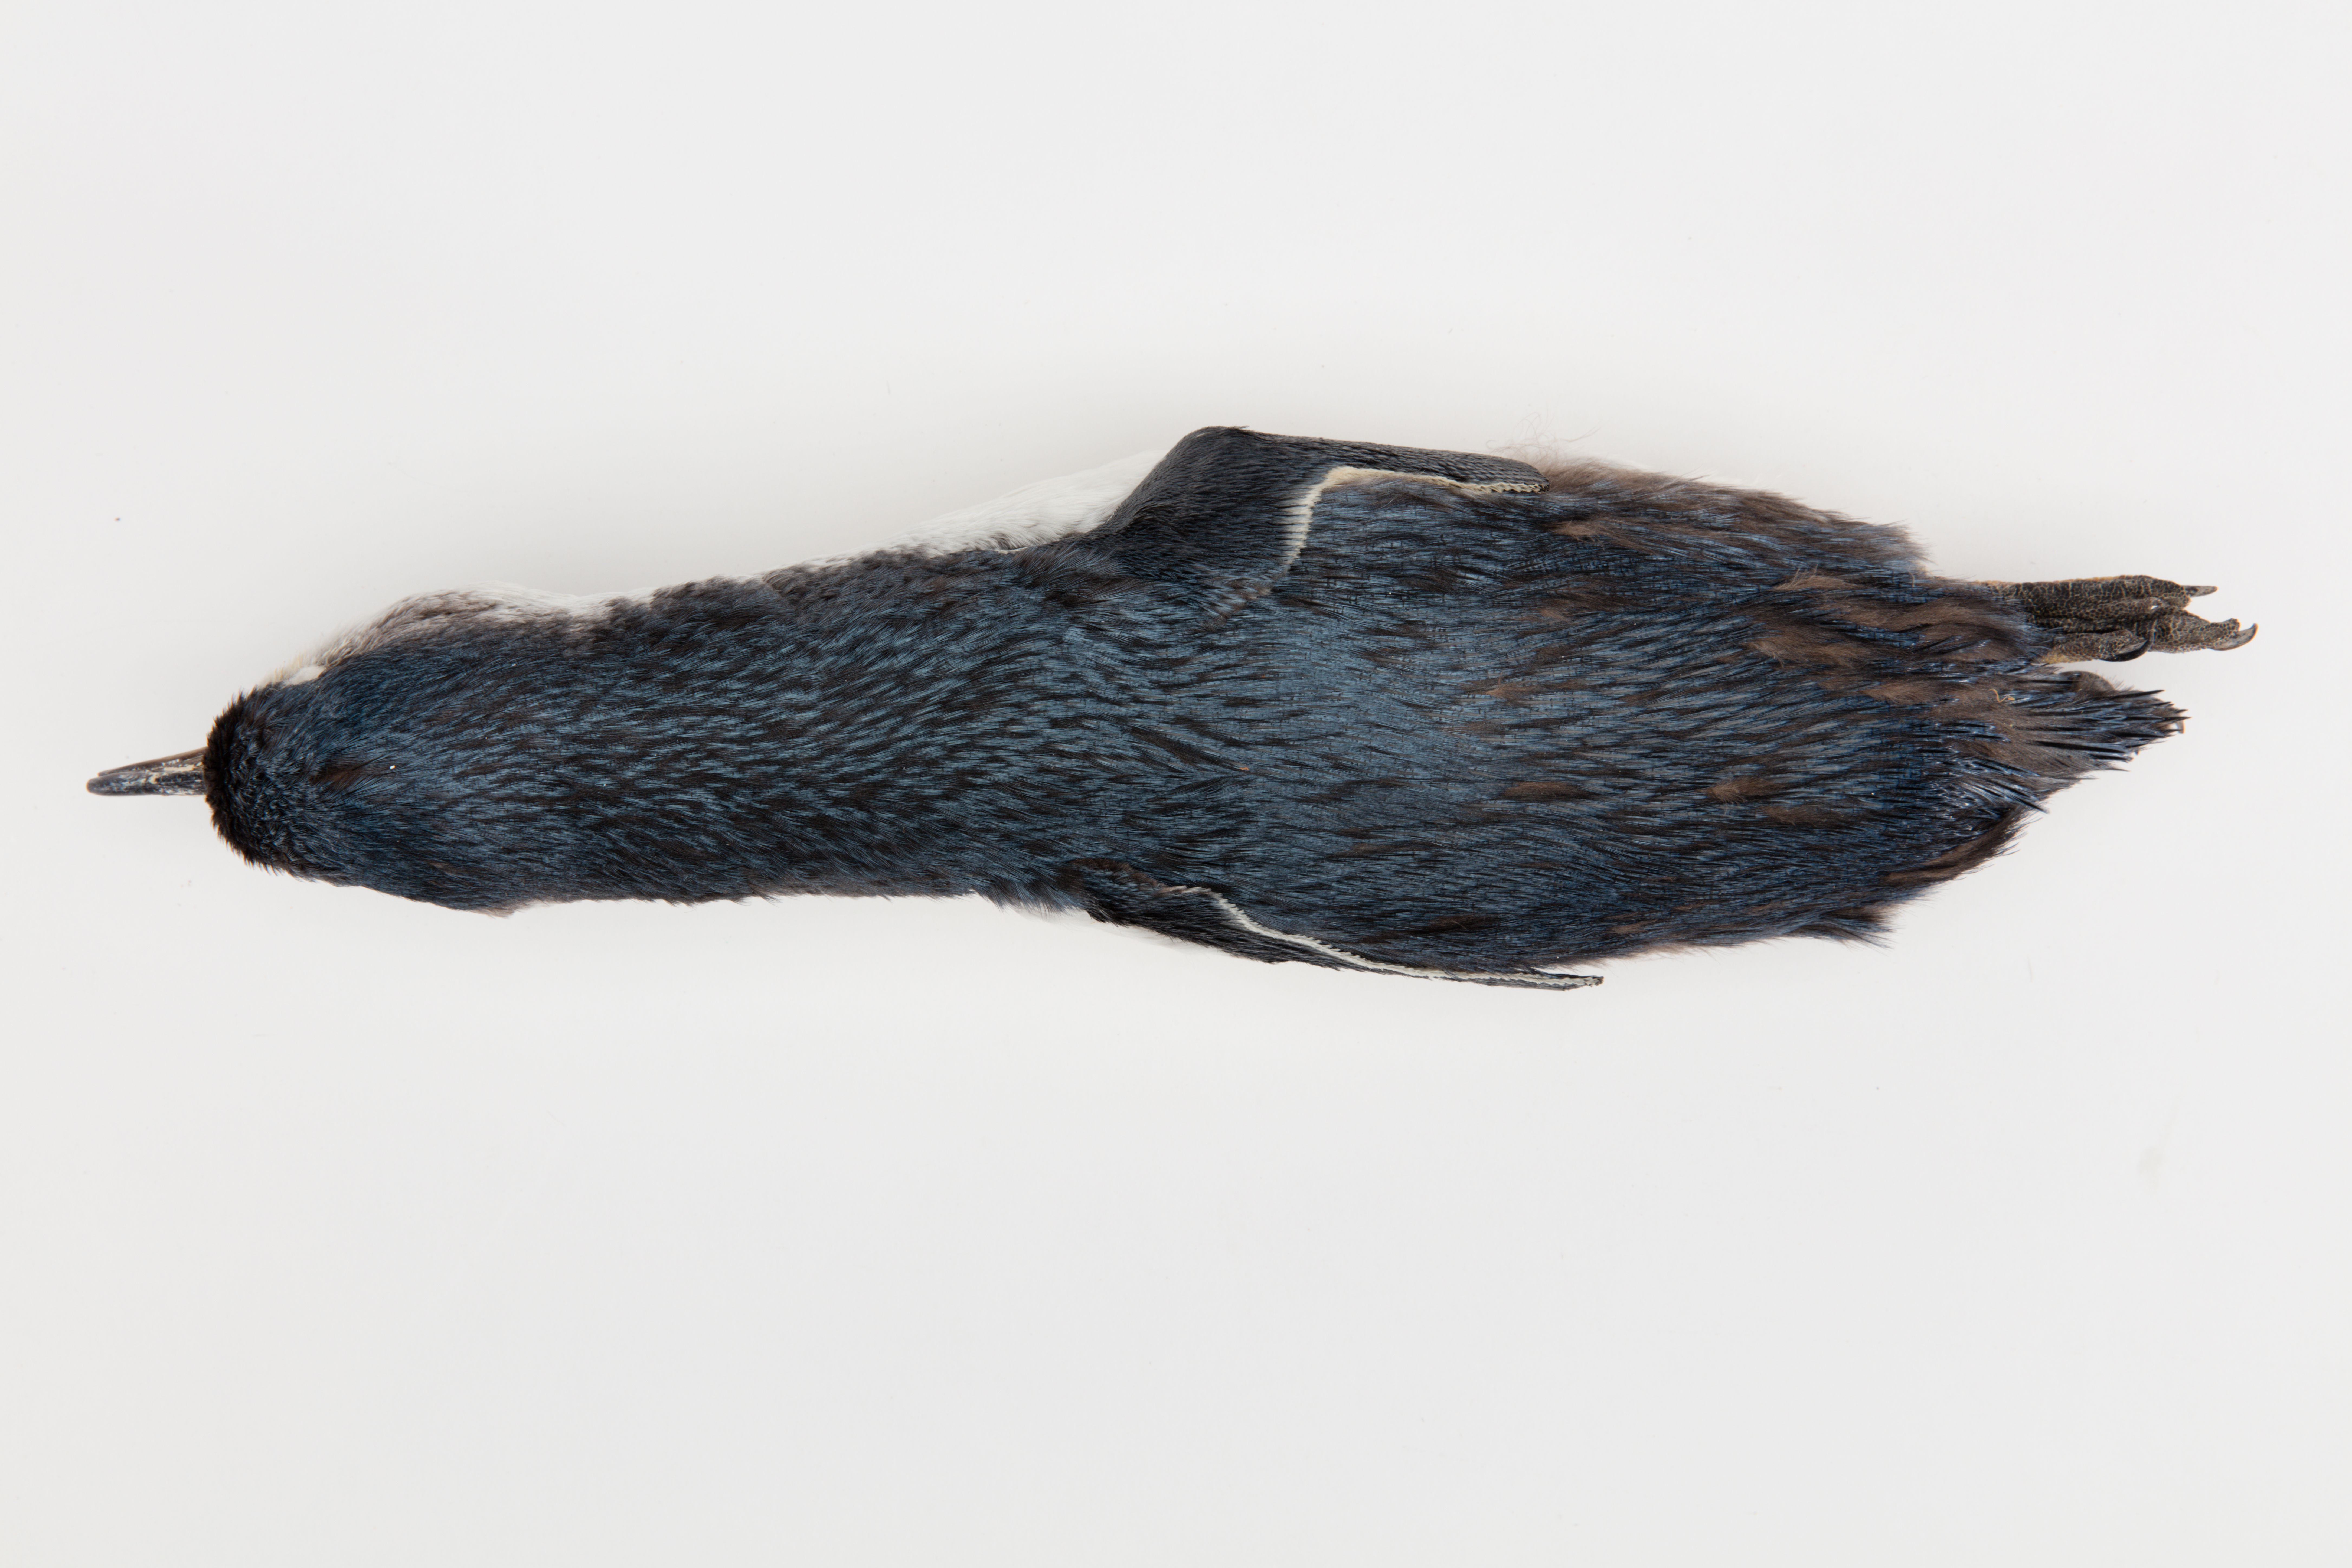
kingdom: Animalia
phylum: Chordata
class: Aves
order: Sphenisciformes
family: Spheniscidae
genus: Eudyptula
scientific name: Eudyptula minor
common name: Little penguin
